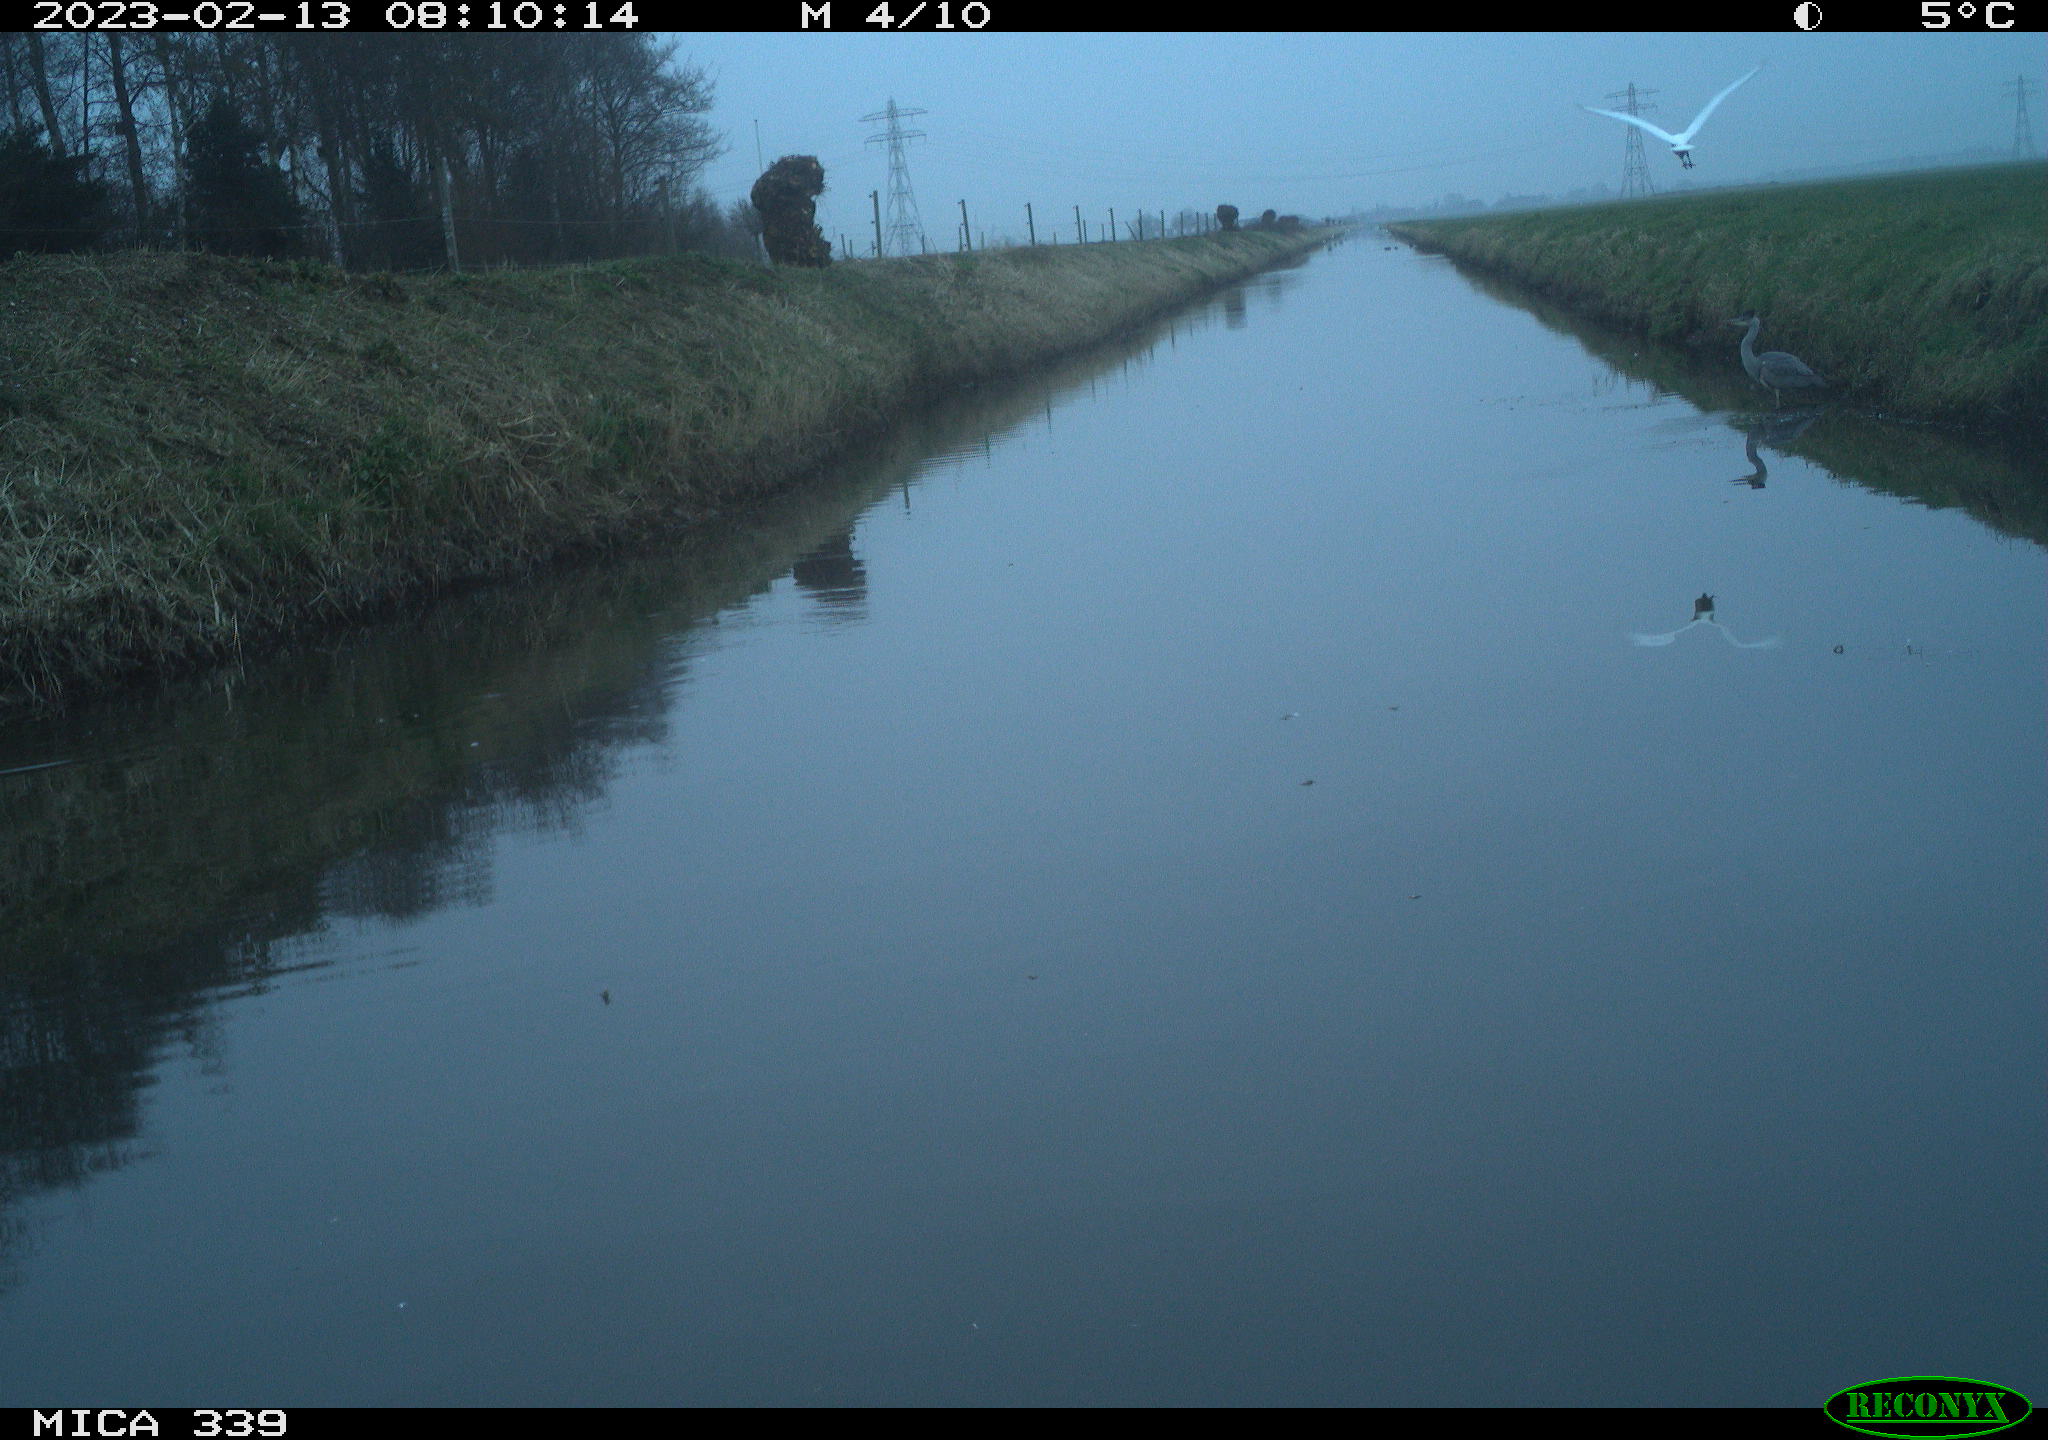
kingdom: Animalia
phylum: Chordata
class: Aves
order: Pelecaniformes
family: Ardeidae
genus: Ardea
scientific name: Ardea cinerea
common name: Grey heron
